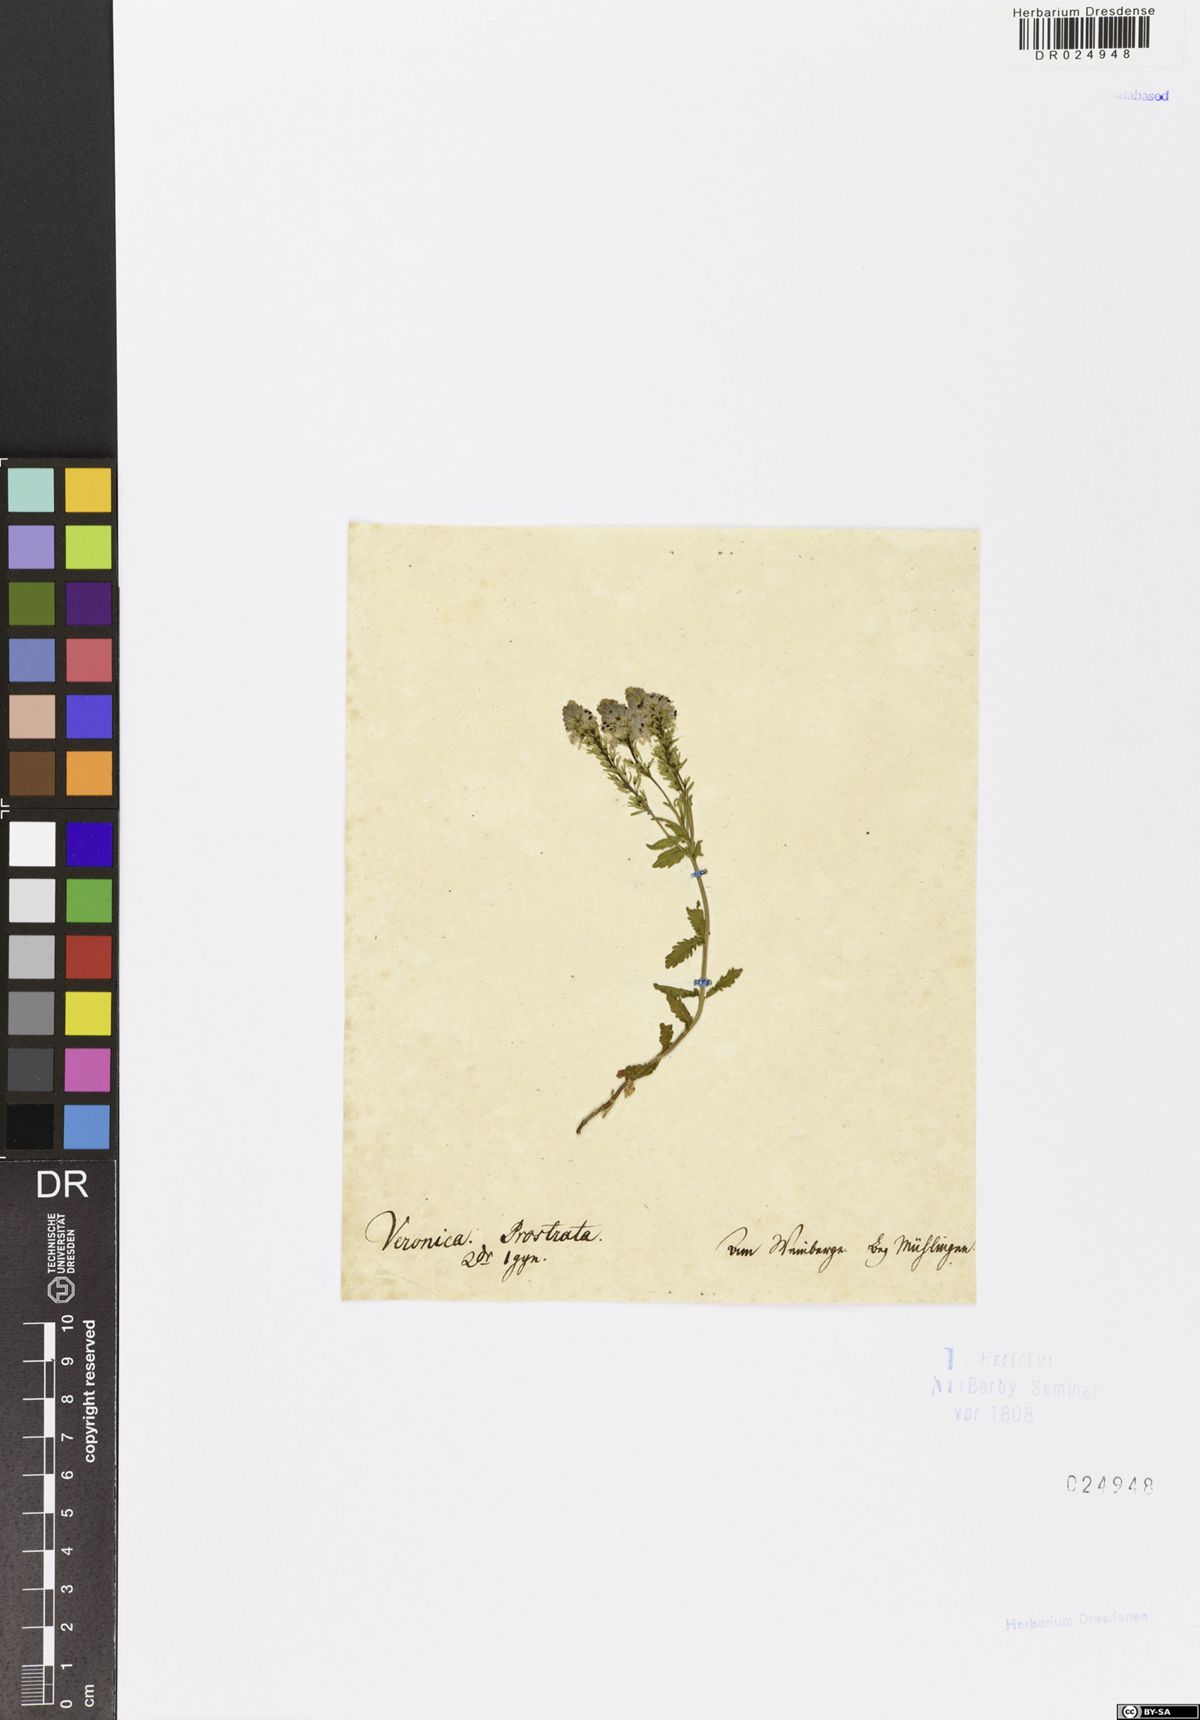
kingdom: Plantae
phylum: Tracheophyta
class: Magnoliopsida
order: Lamiales
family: Plantaginaceae
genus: Veronica
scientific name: Veronica prostrata
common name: Prostrate speedwell
